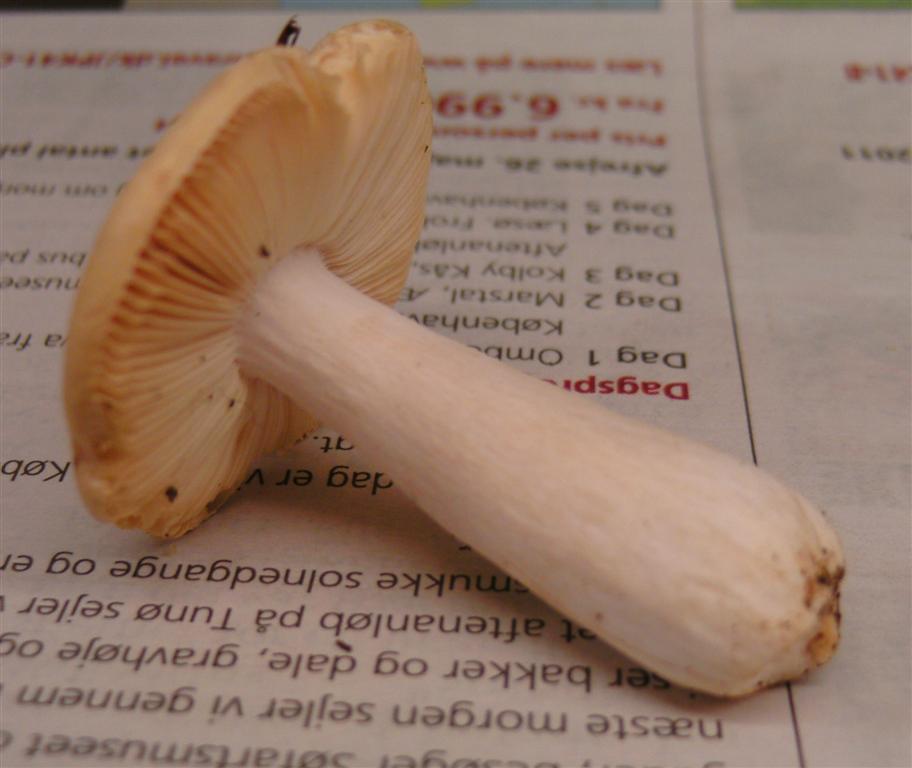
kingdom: Fungi
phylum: Basidiomycota
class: Agaricomycetes
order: Russulales
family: Russulaceae
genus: Russula
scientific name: Russula risigallina
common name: abrikos-skørhat
